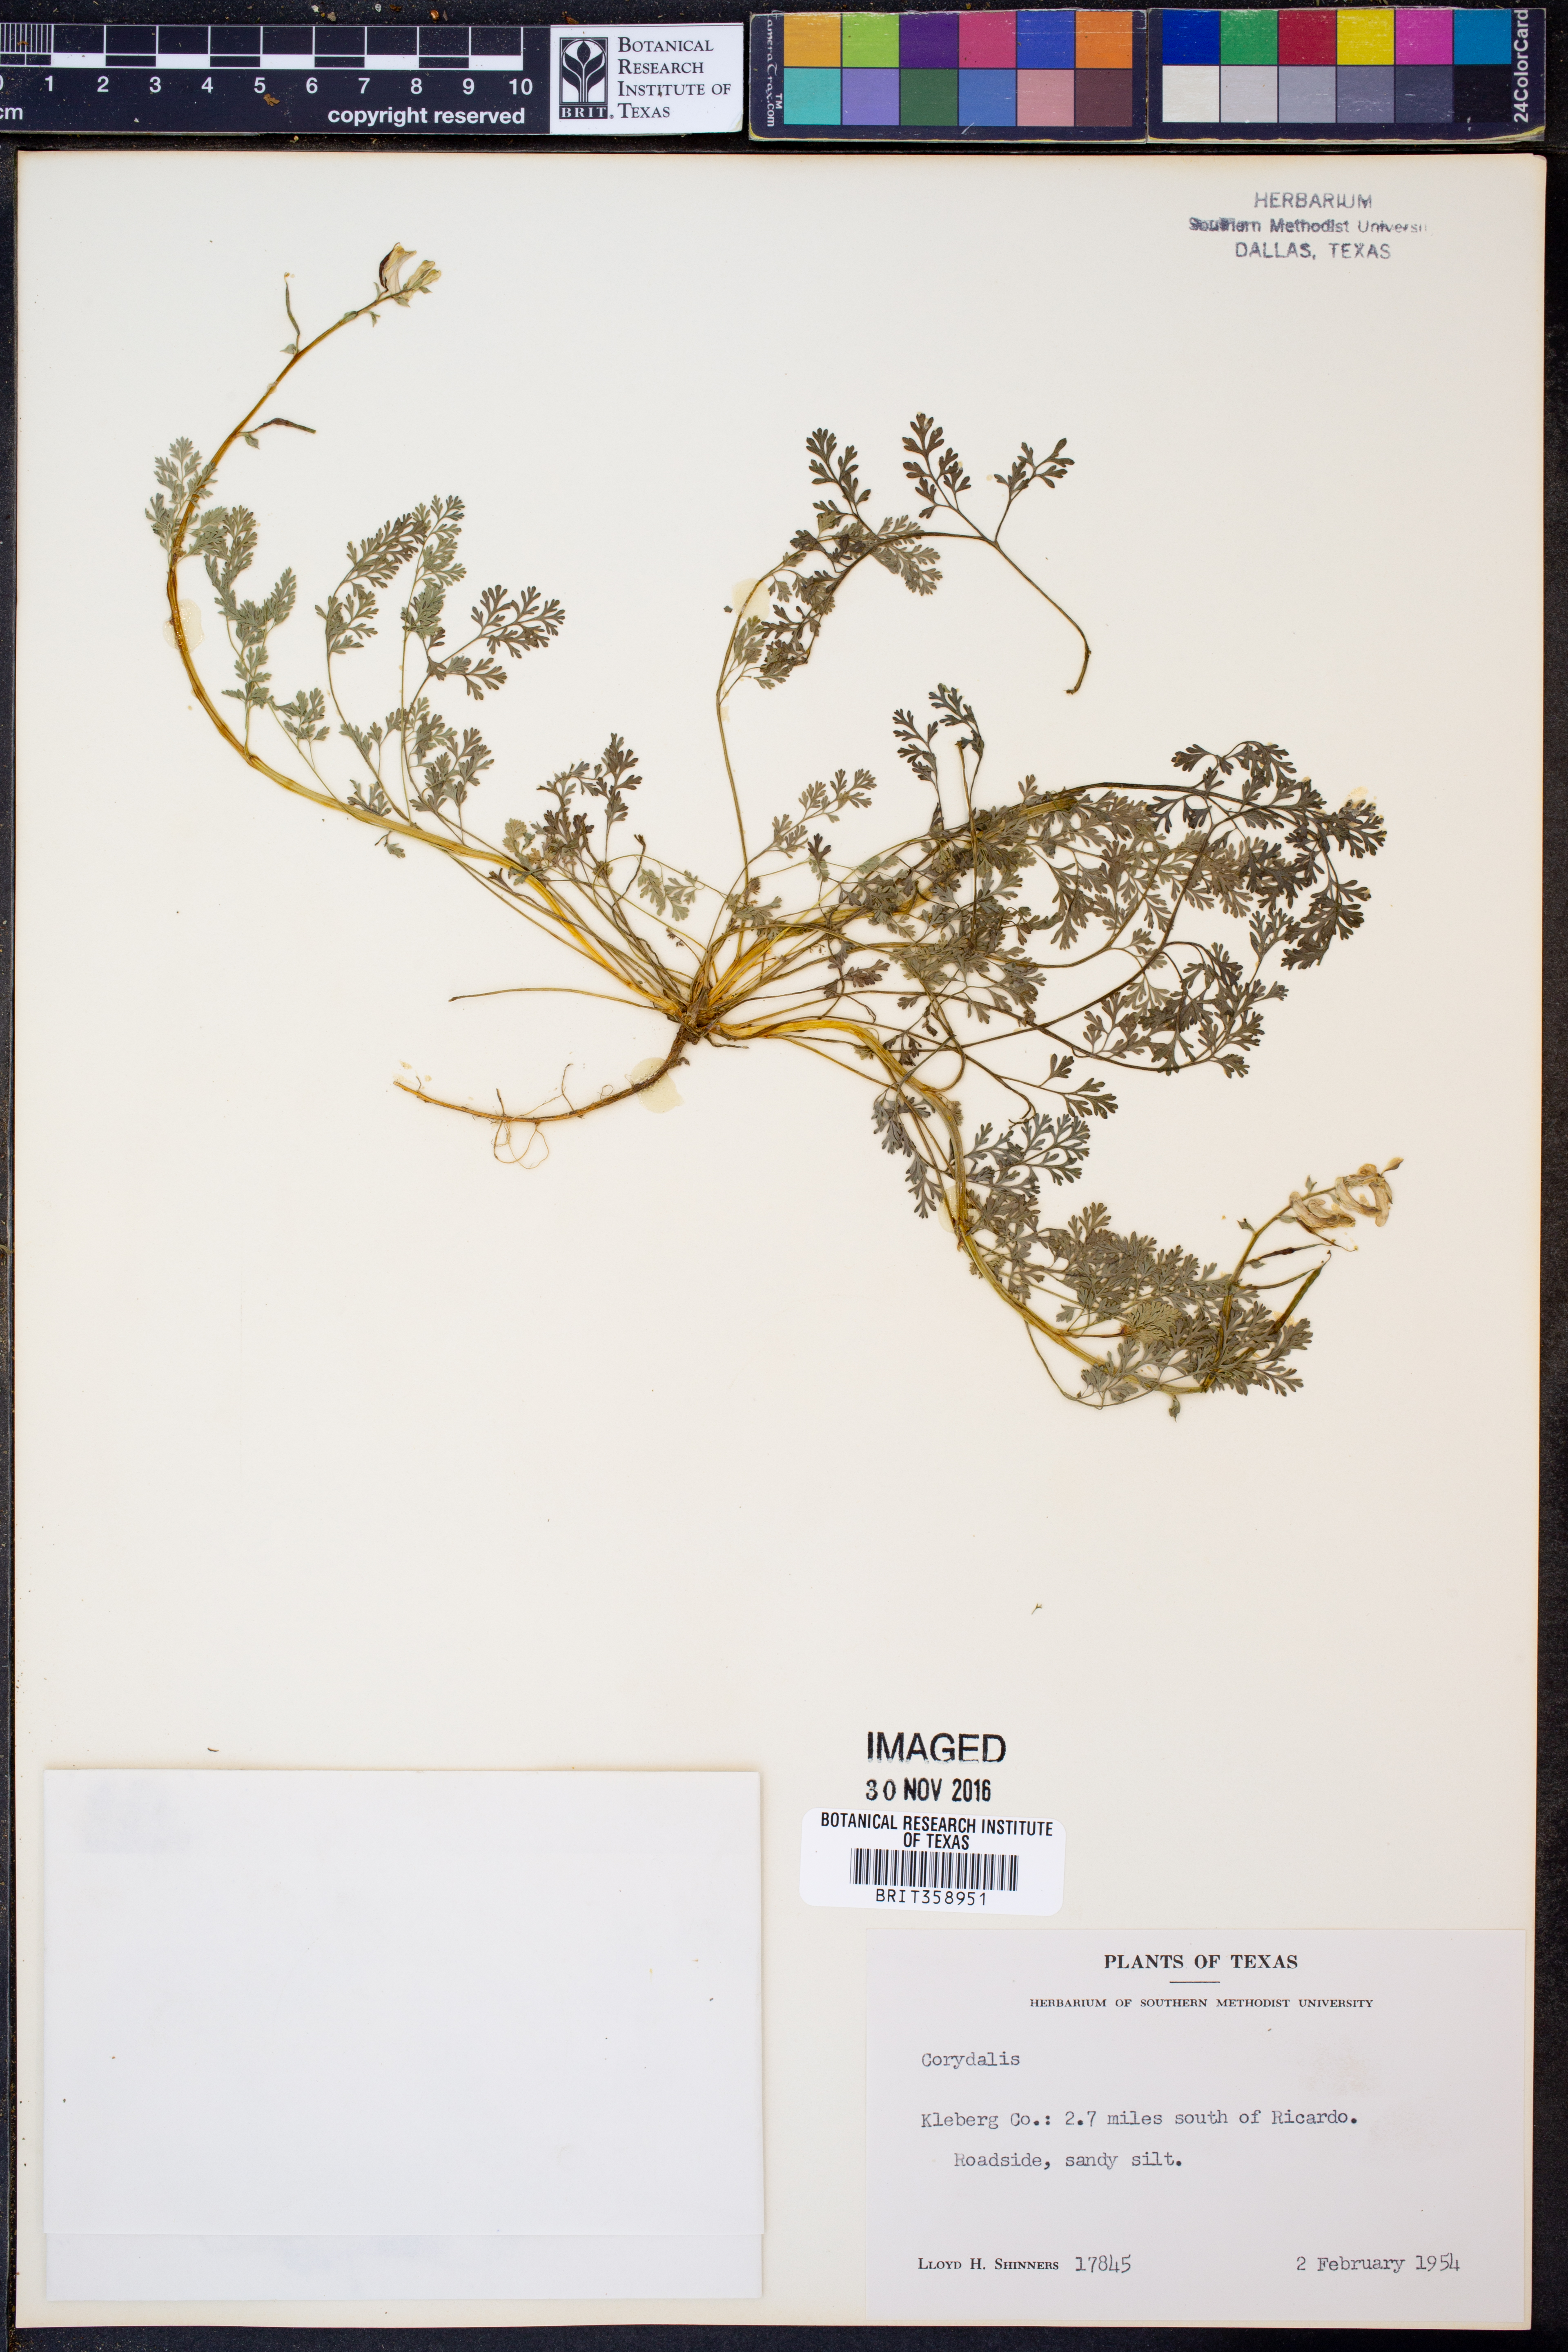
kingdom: Plantae
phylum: Tracheophyta
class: Magnoliopsida
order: Ranunculales
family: Papaveraceae
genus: Corydalis
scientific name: Corydalis
